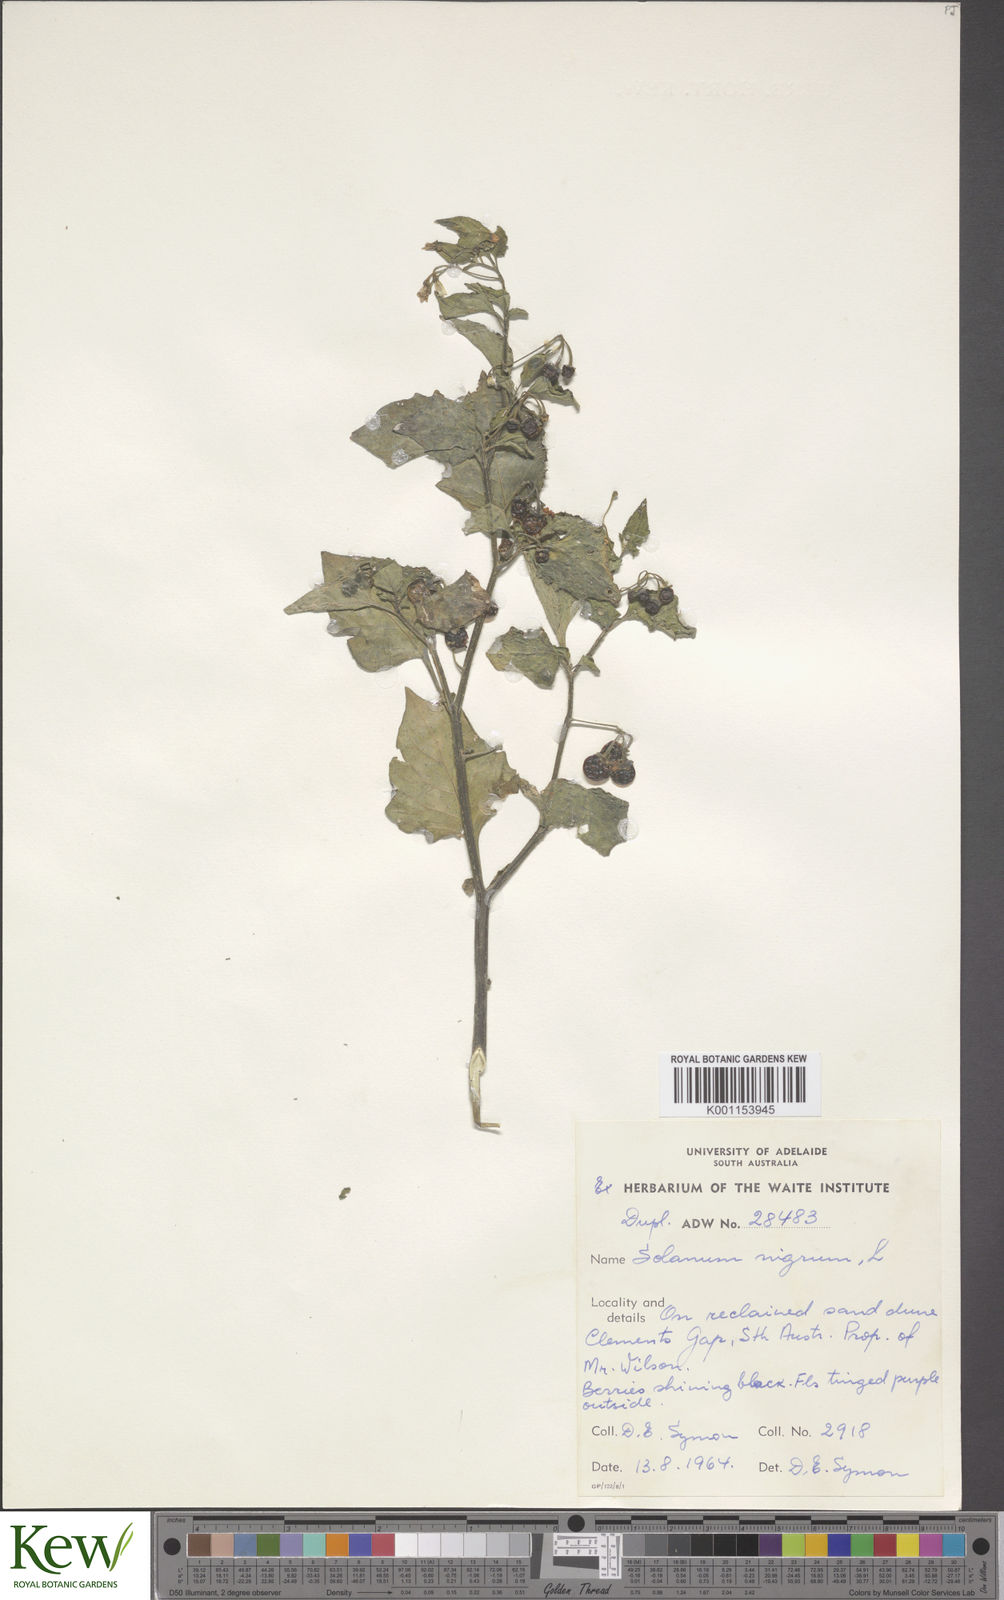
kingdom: Plantae
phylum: Tracheophyta
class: Magnoliopsida
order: Solanales
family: Solanaceae
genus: Solanum
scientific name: Solanum nigrum
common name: Black nightshade
